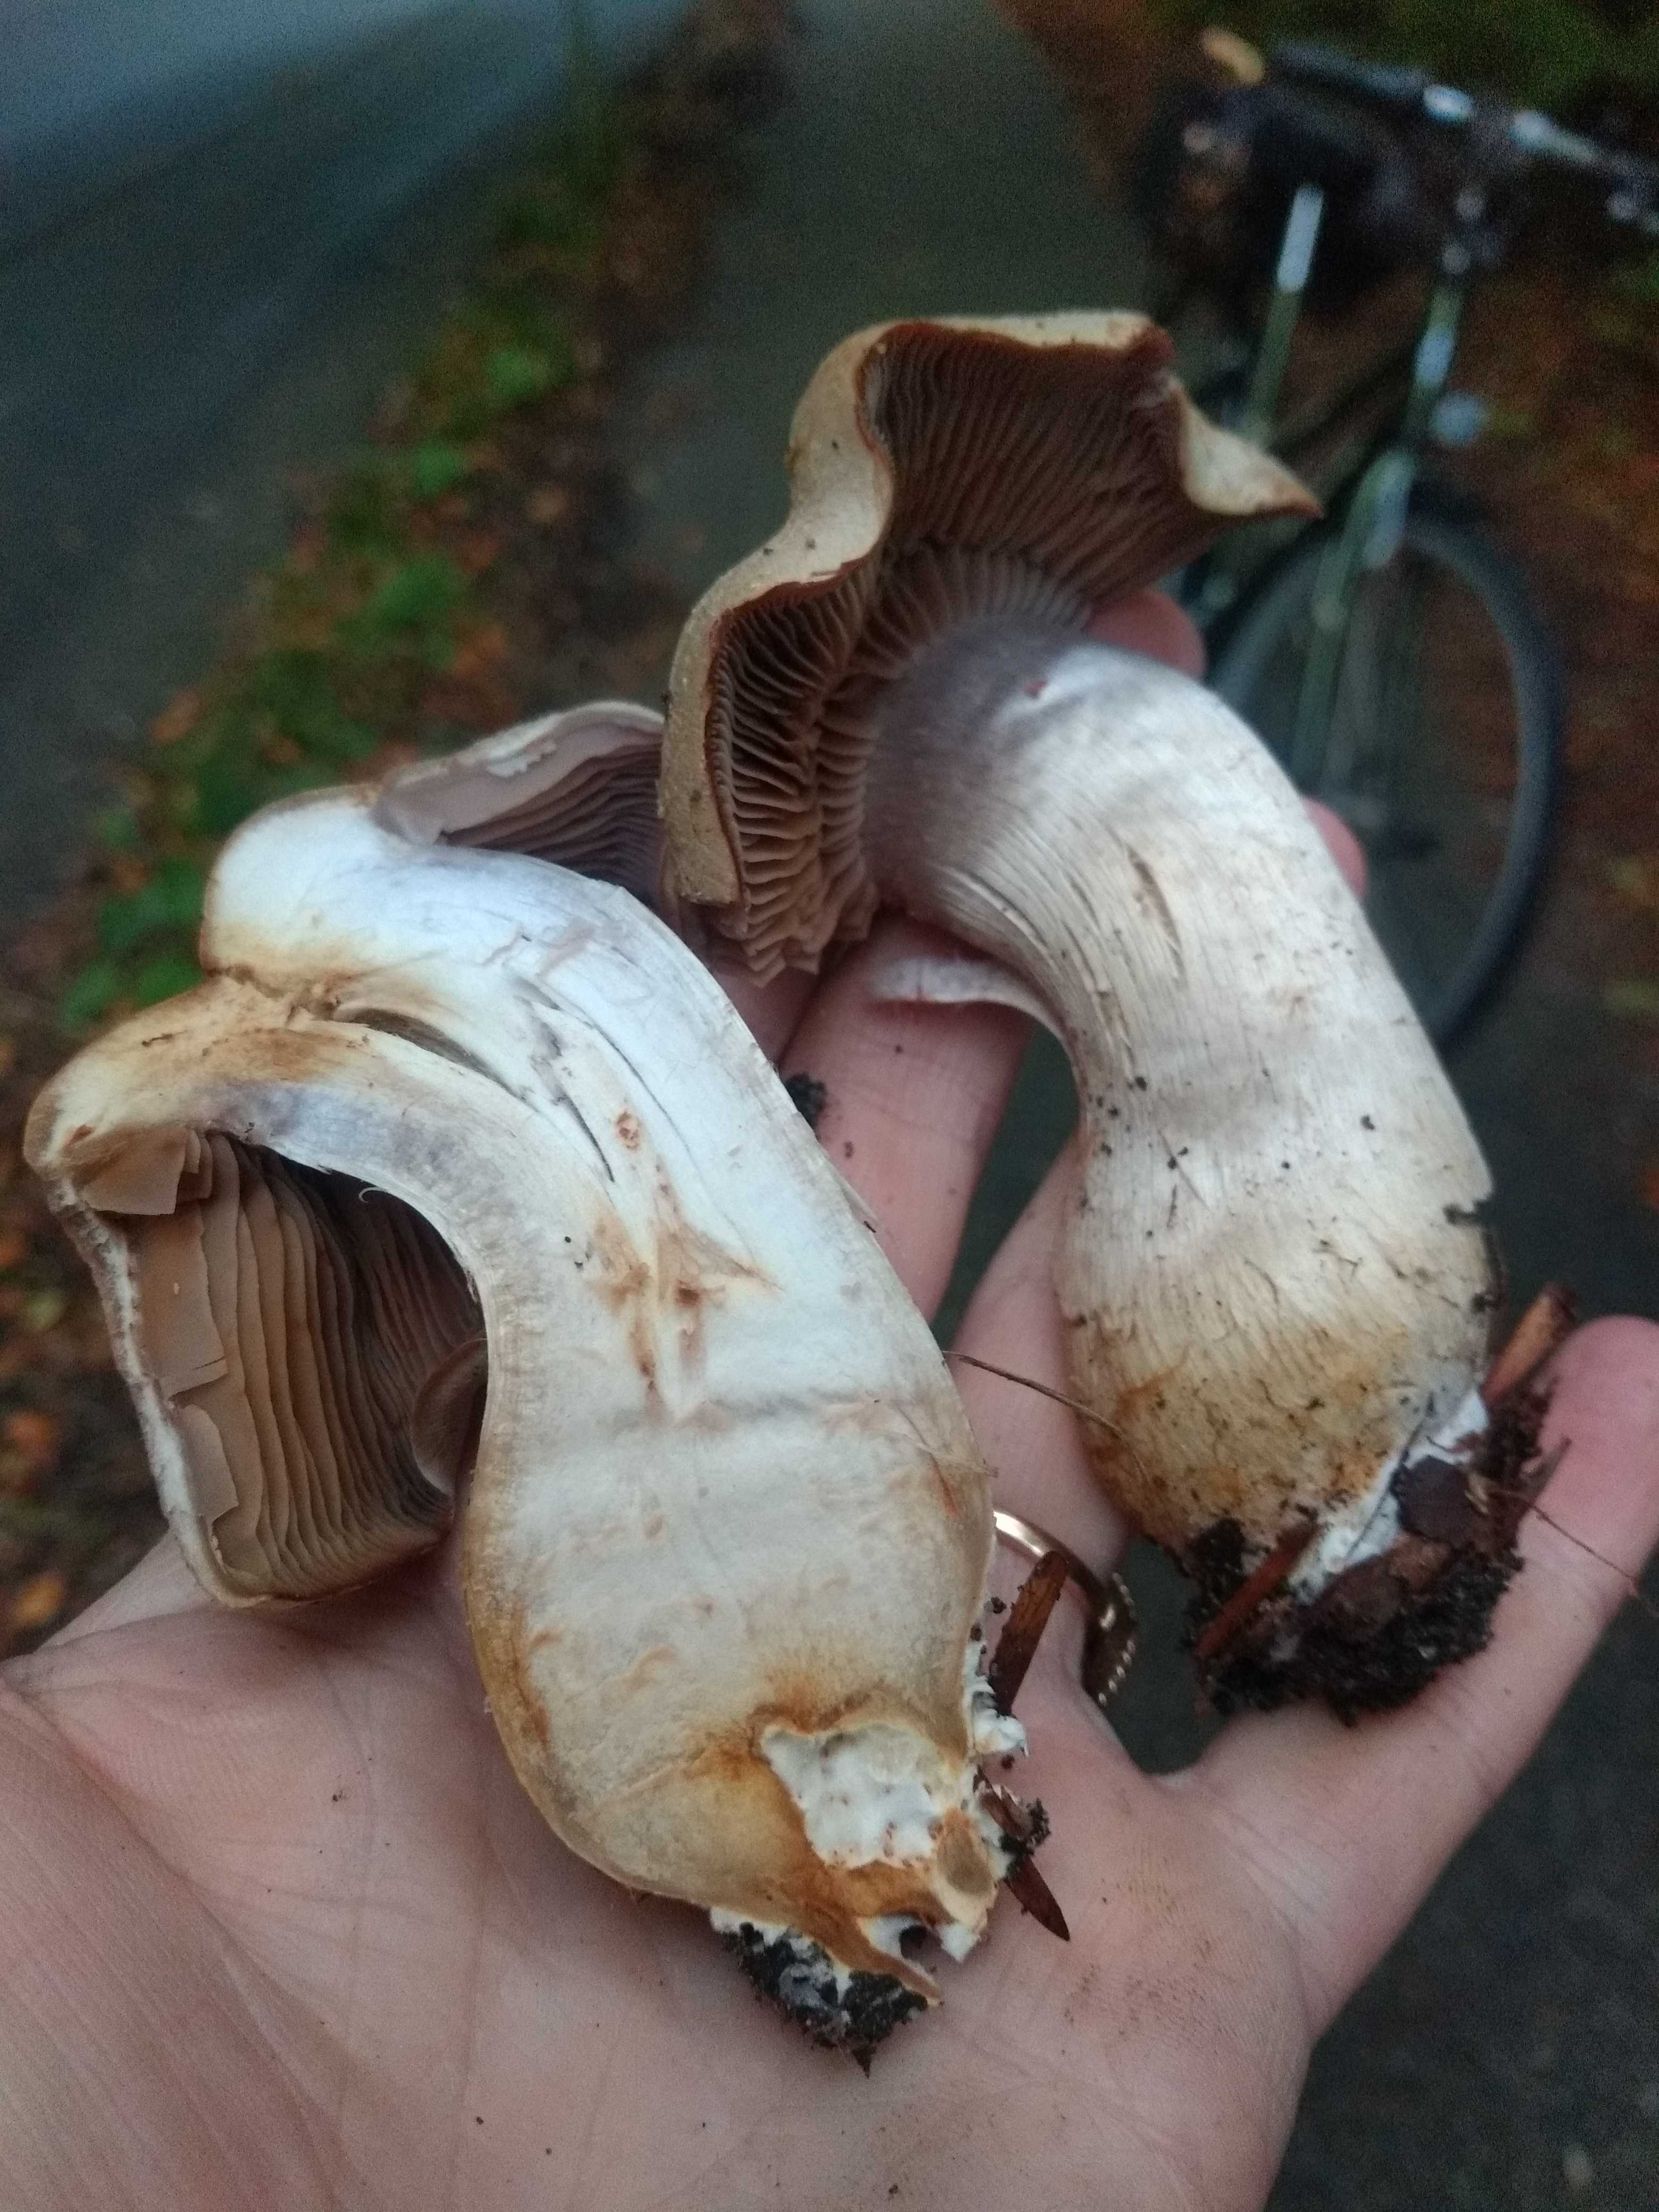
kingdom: Fungi
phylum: Basidiomycota
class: Agaricomycetes
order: Agaricales
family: Cortinariaceae
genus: Cortinarius
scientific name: Cortinarius
